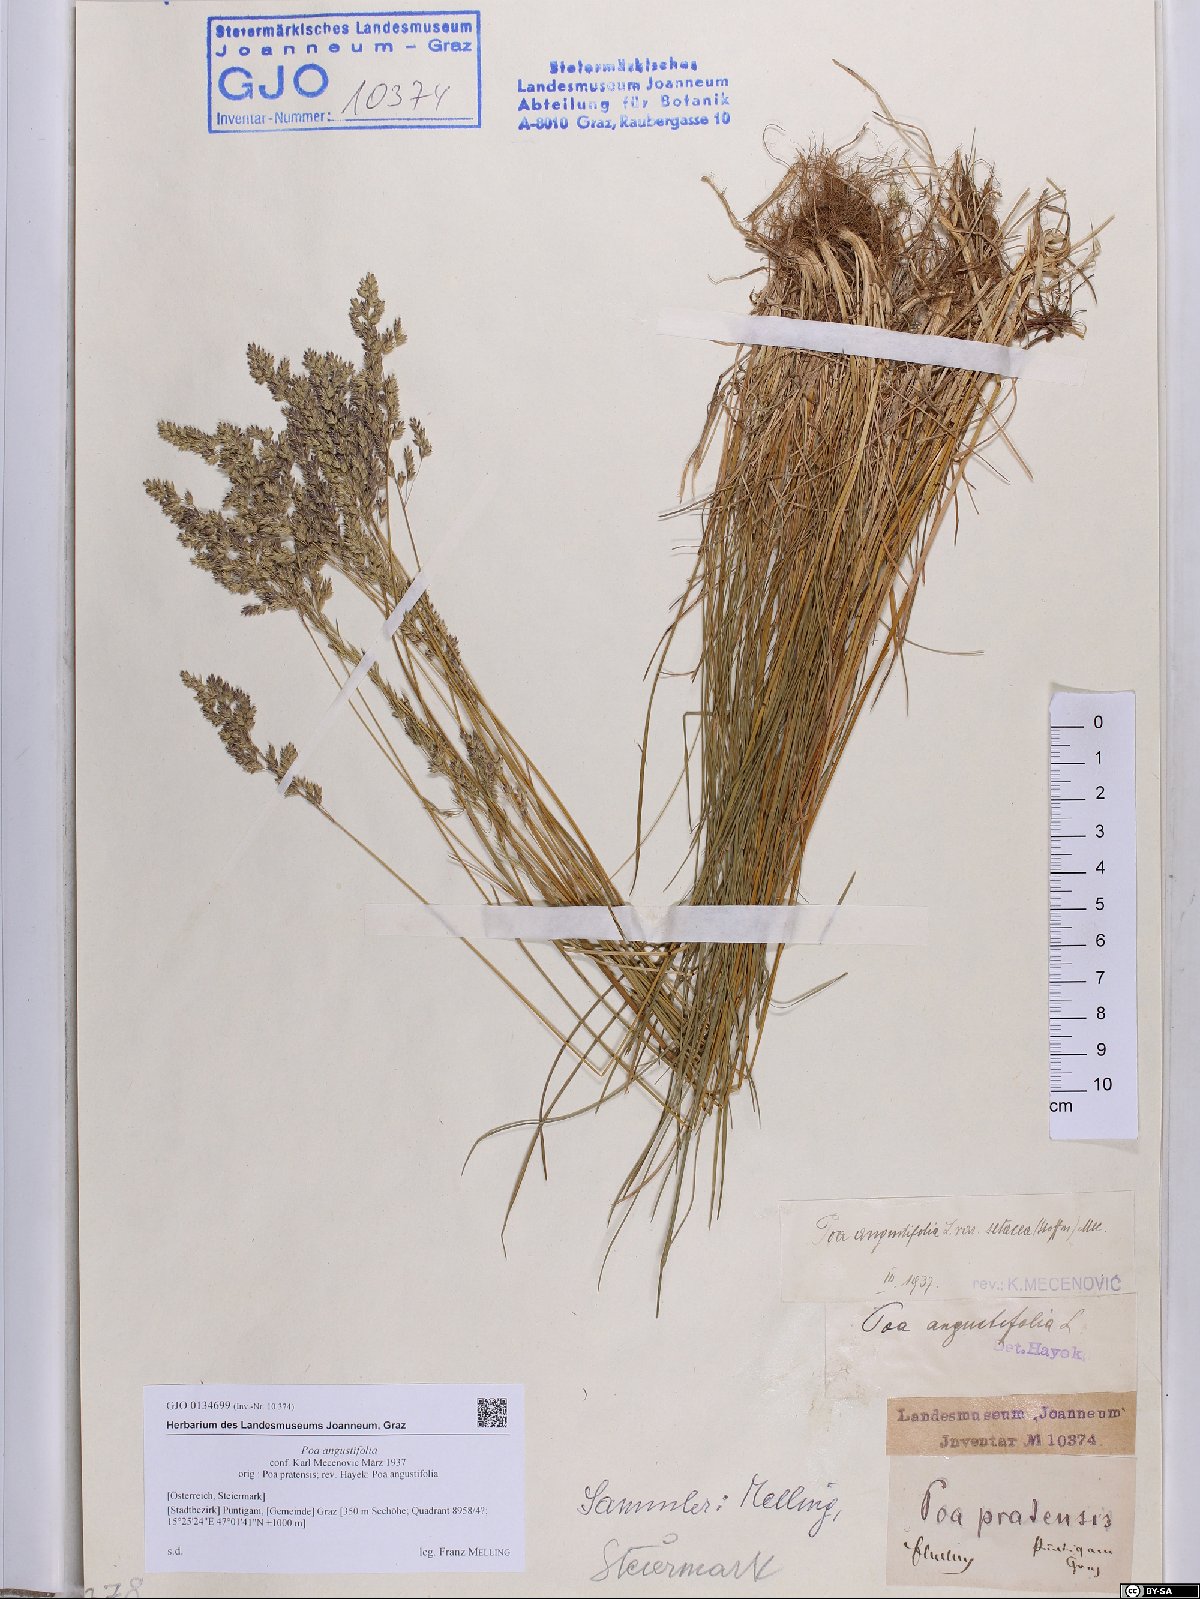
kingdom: Plantae
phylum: Tracheophyta
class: Liliopsida
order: Poales
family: Poaceae
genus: Poa
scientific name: Poa angustifolia
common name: Narrow-leaved meadow-grass
